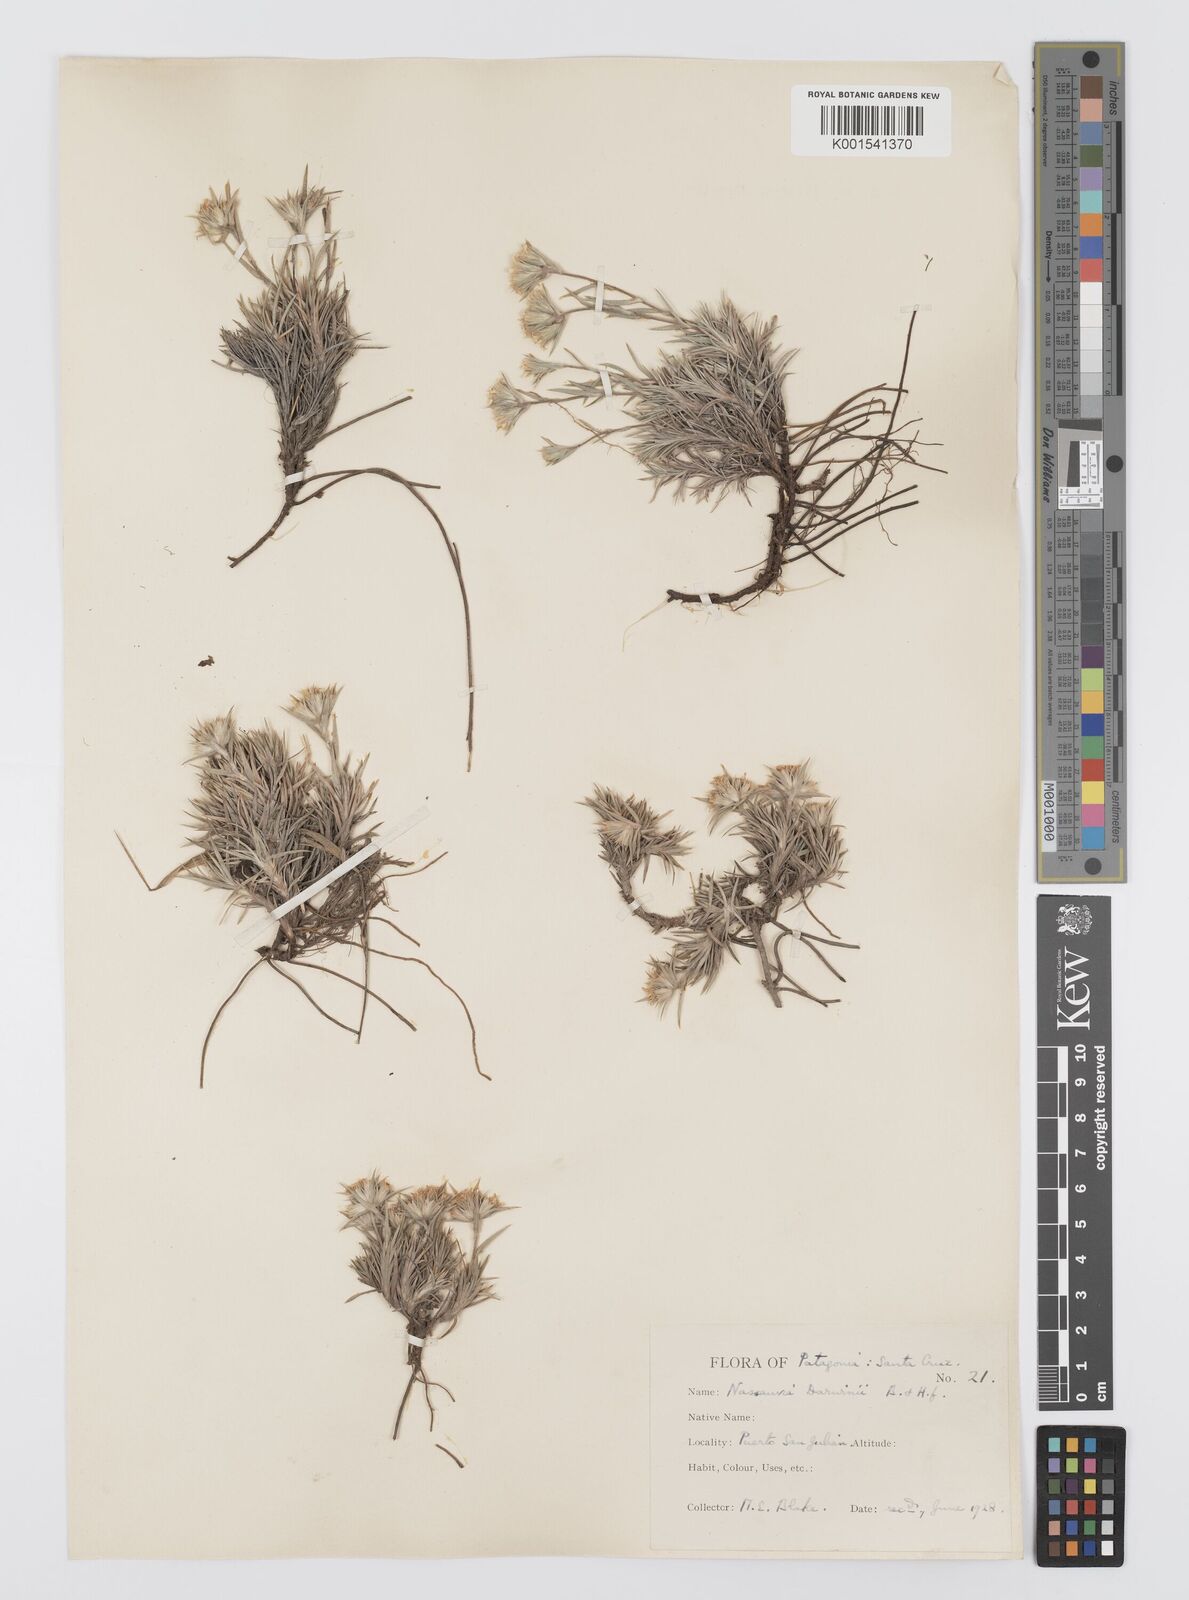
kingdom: Plantae
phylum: Tracheophyta
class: Magnoliopsida
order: Asterales
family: Asteraceae
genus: Nassauvia
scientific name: Nassauvia darwinii
